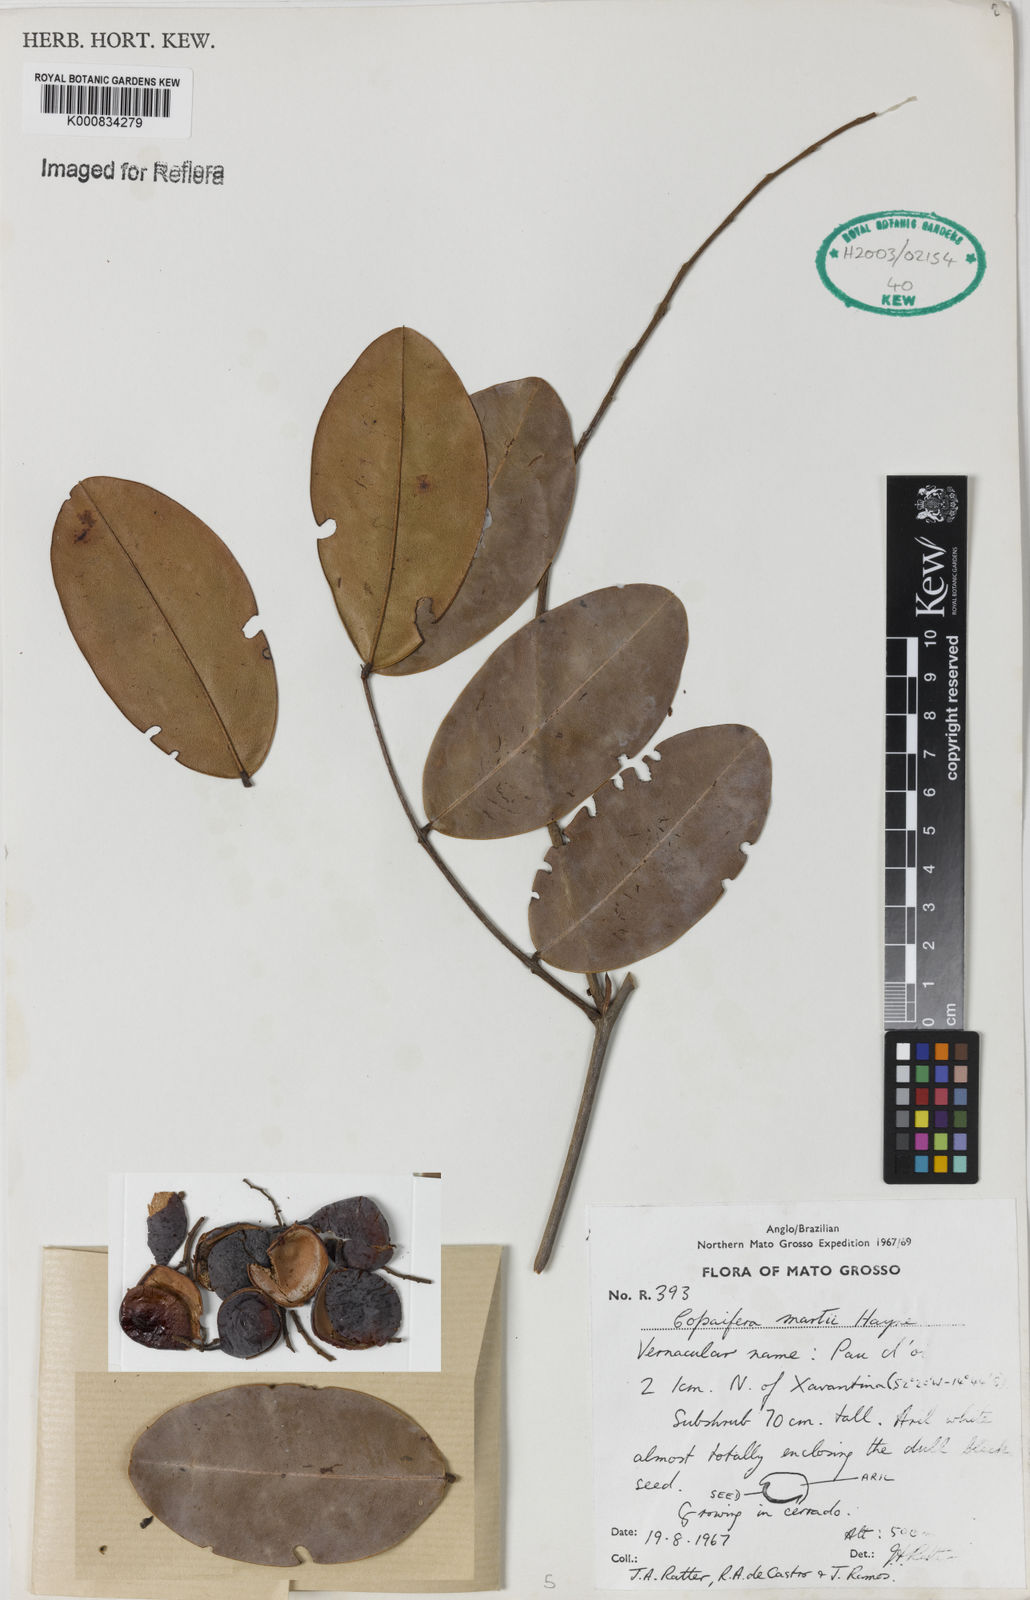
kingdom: Plantae
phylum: Tracheophyta
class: Magnoliopsida
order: Fabales
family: Fabaceae
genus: Copaifera
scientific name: Copaifera martii
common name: Copaiba
